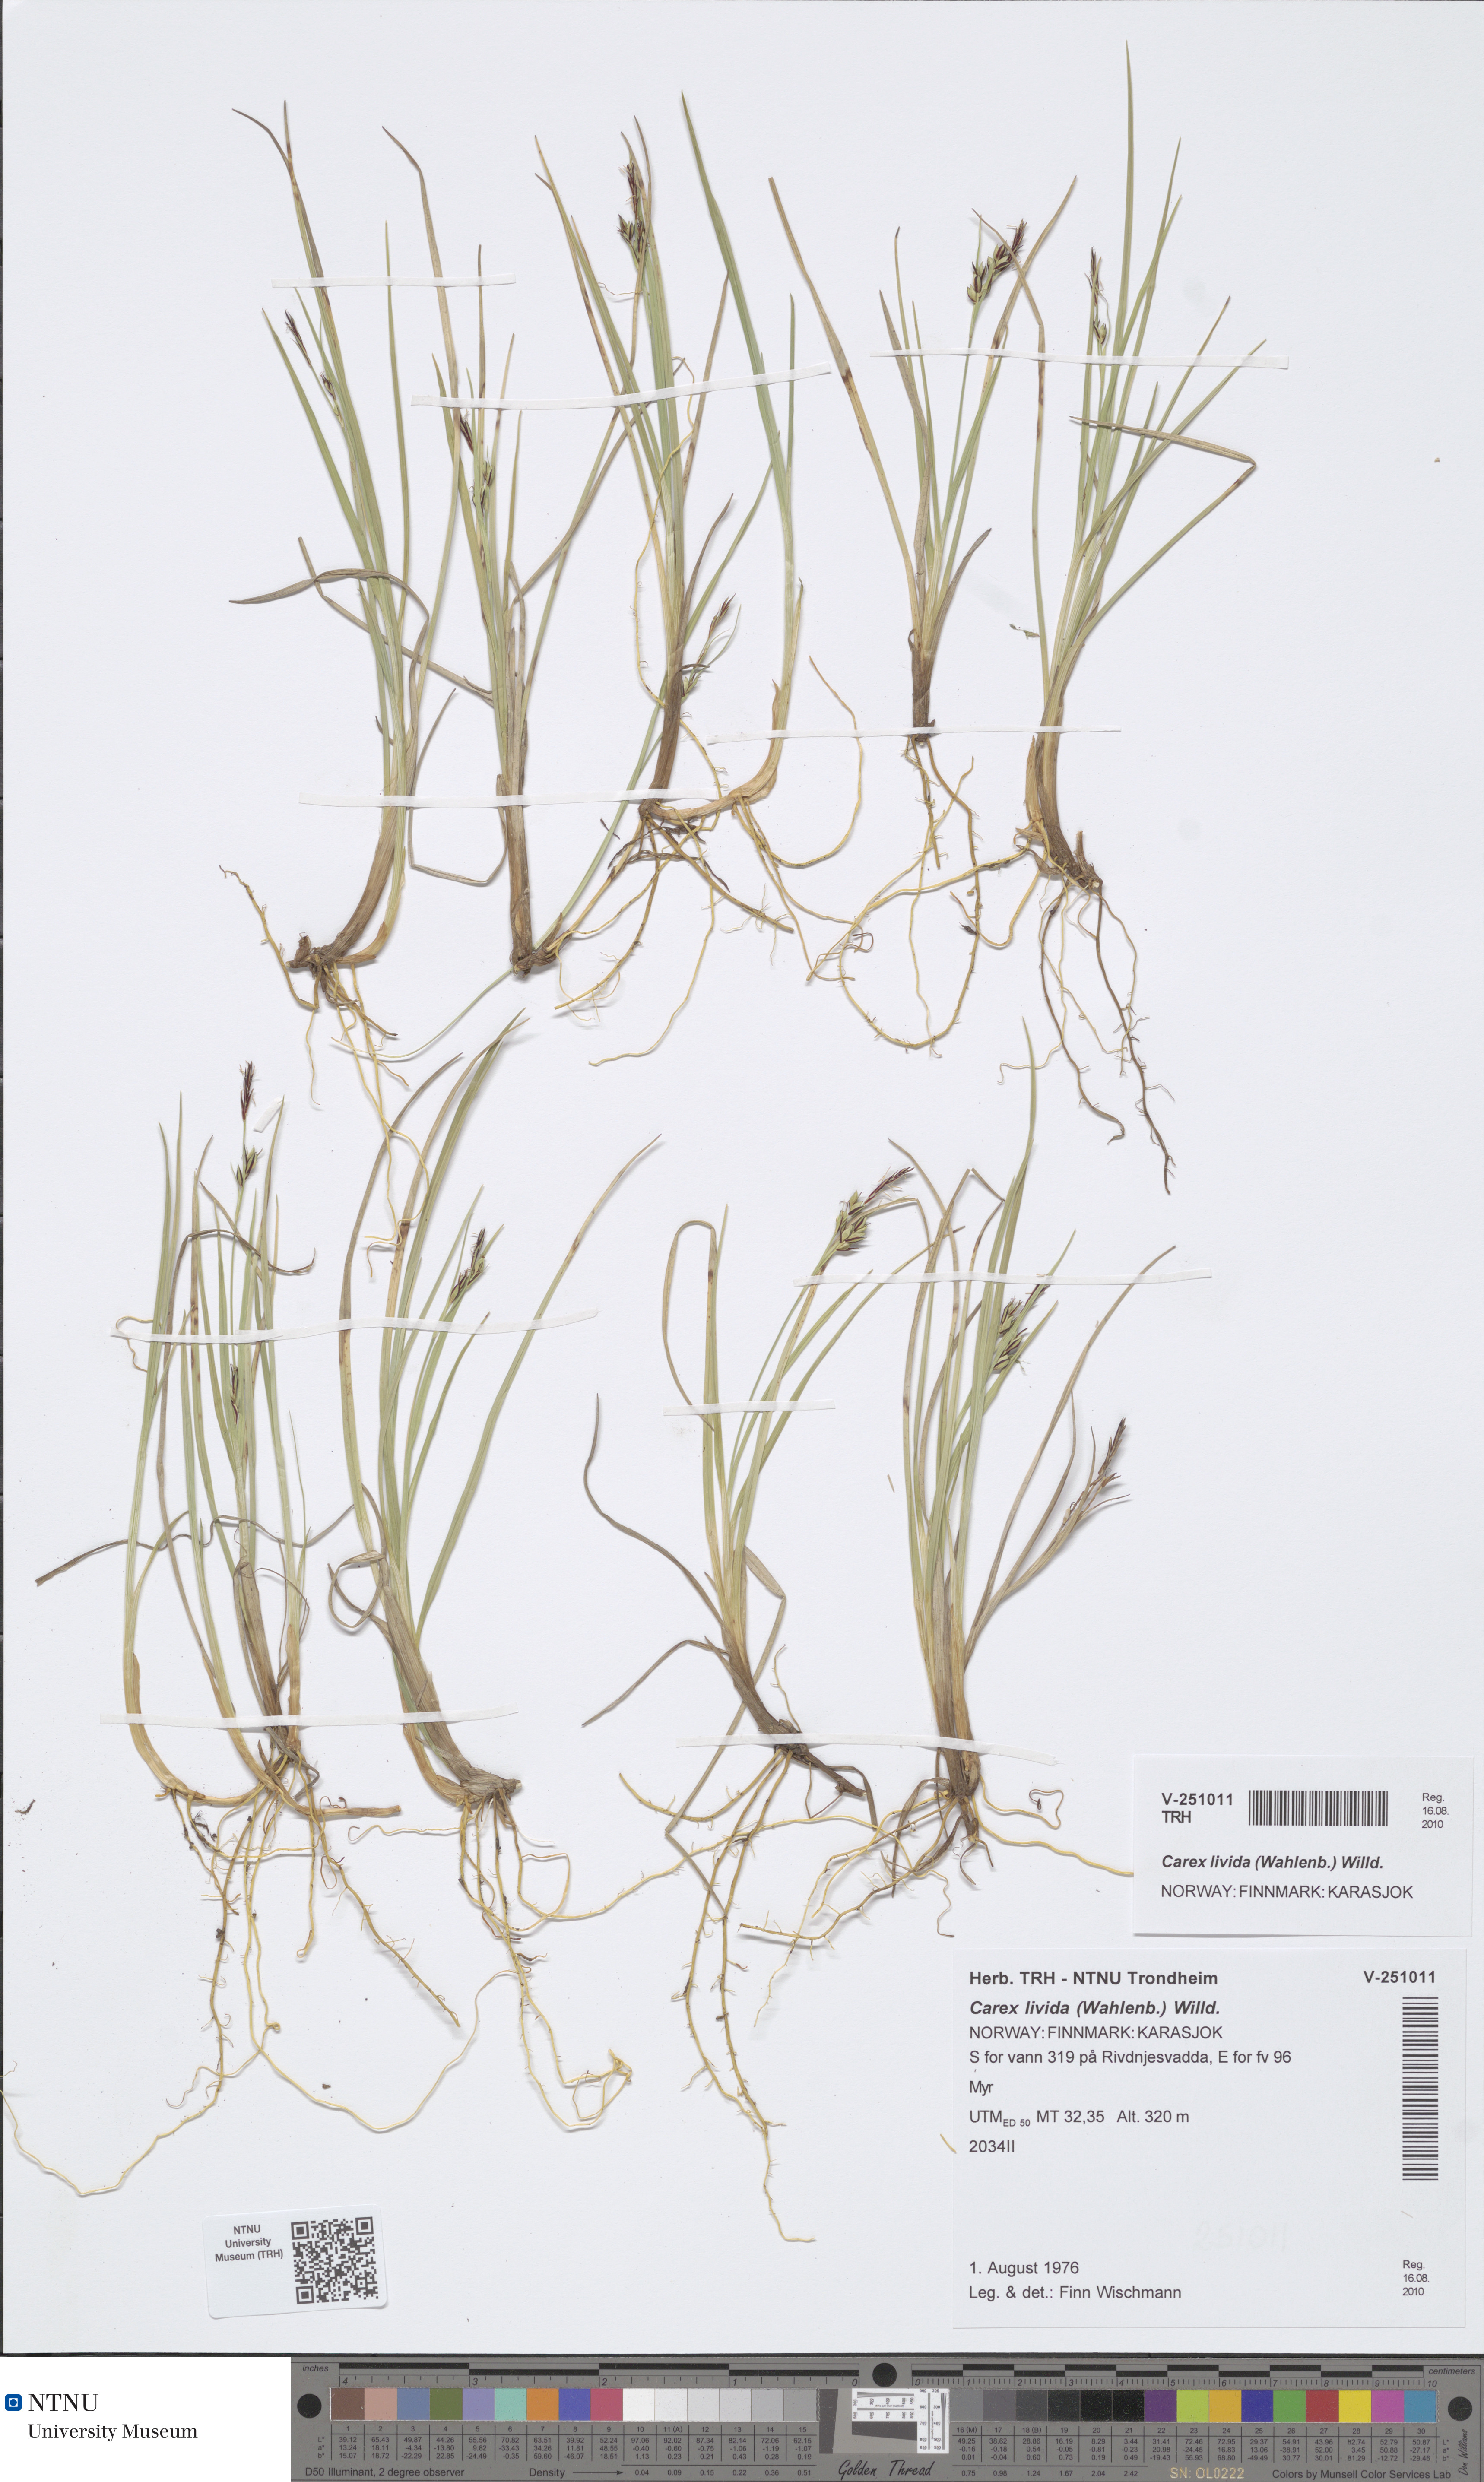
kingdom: Plantae
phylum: Tracheophyta
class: Liliopsida
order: Poales
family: Cyperaceae
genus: Carex
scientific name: Carex livida
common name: Livid sedge
